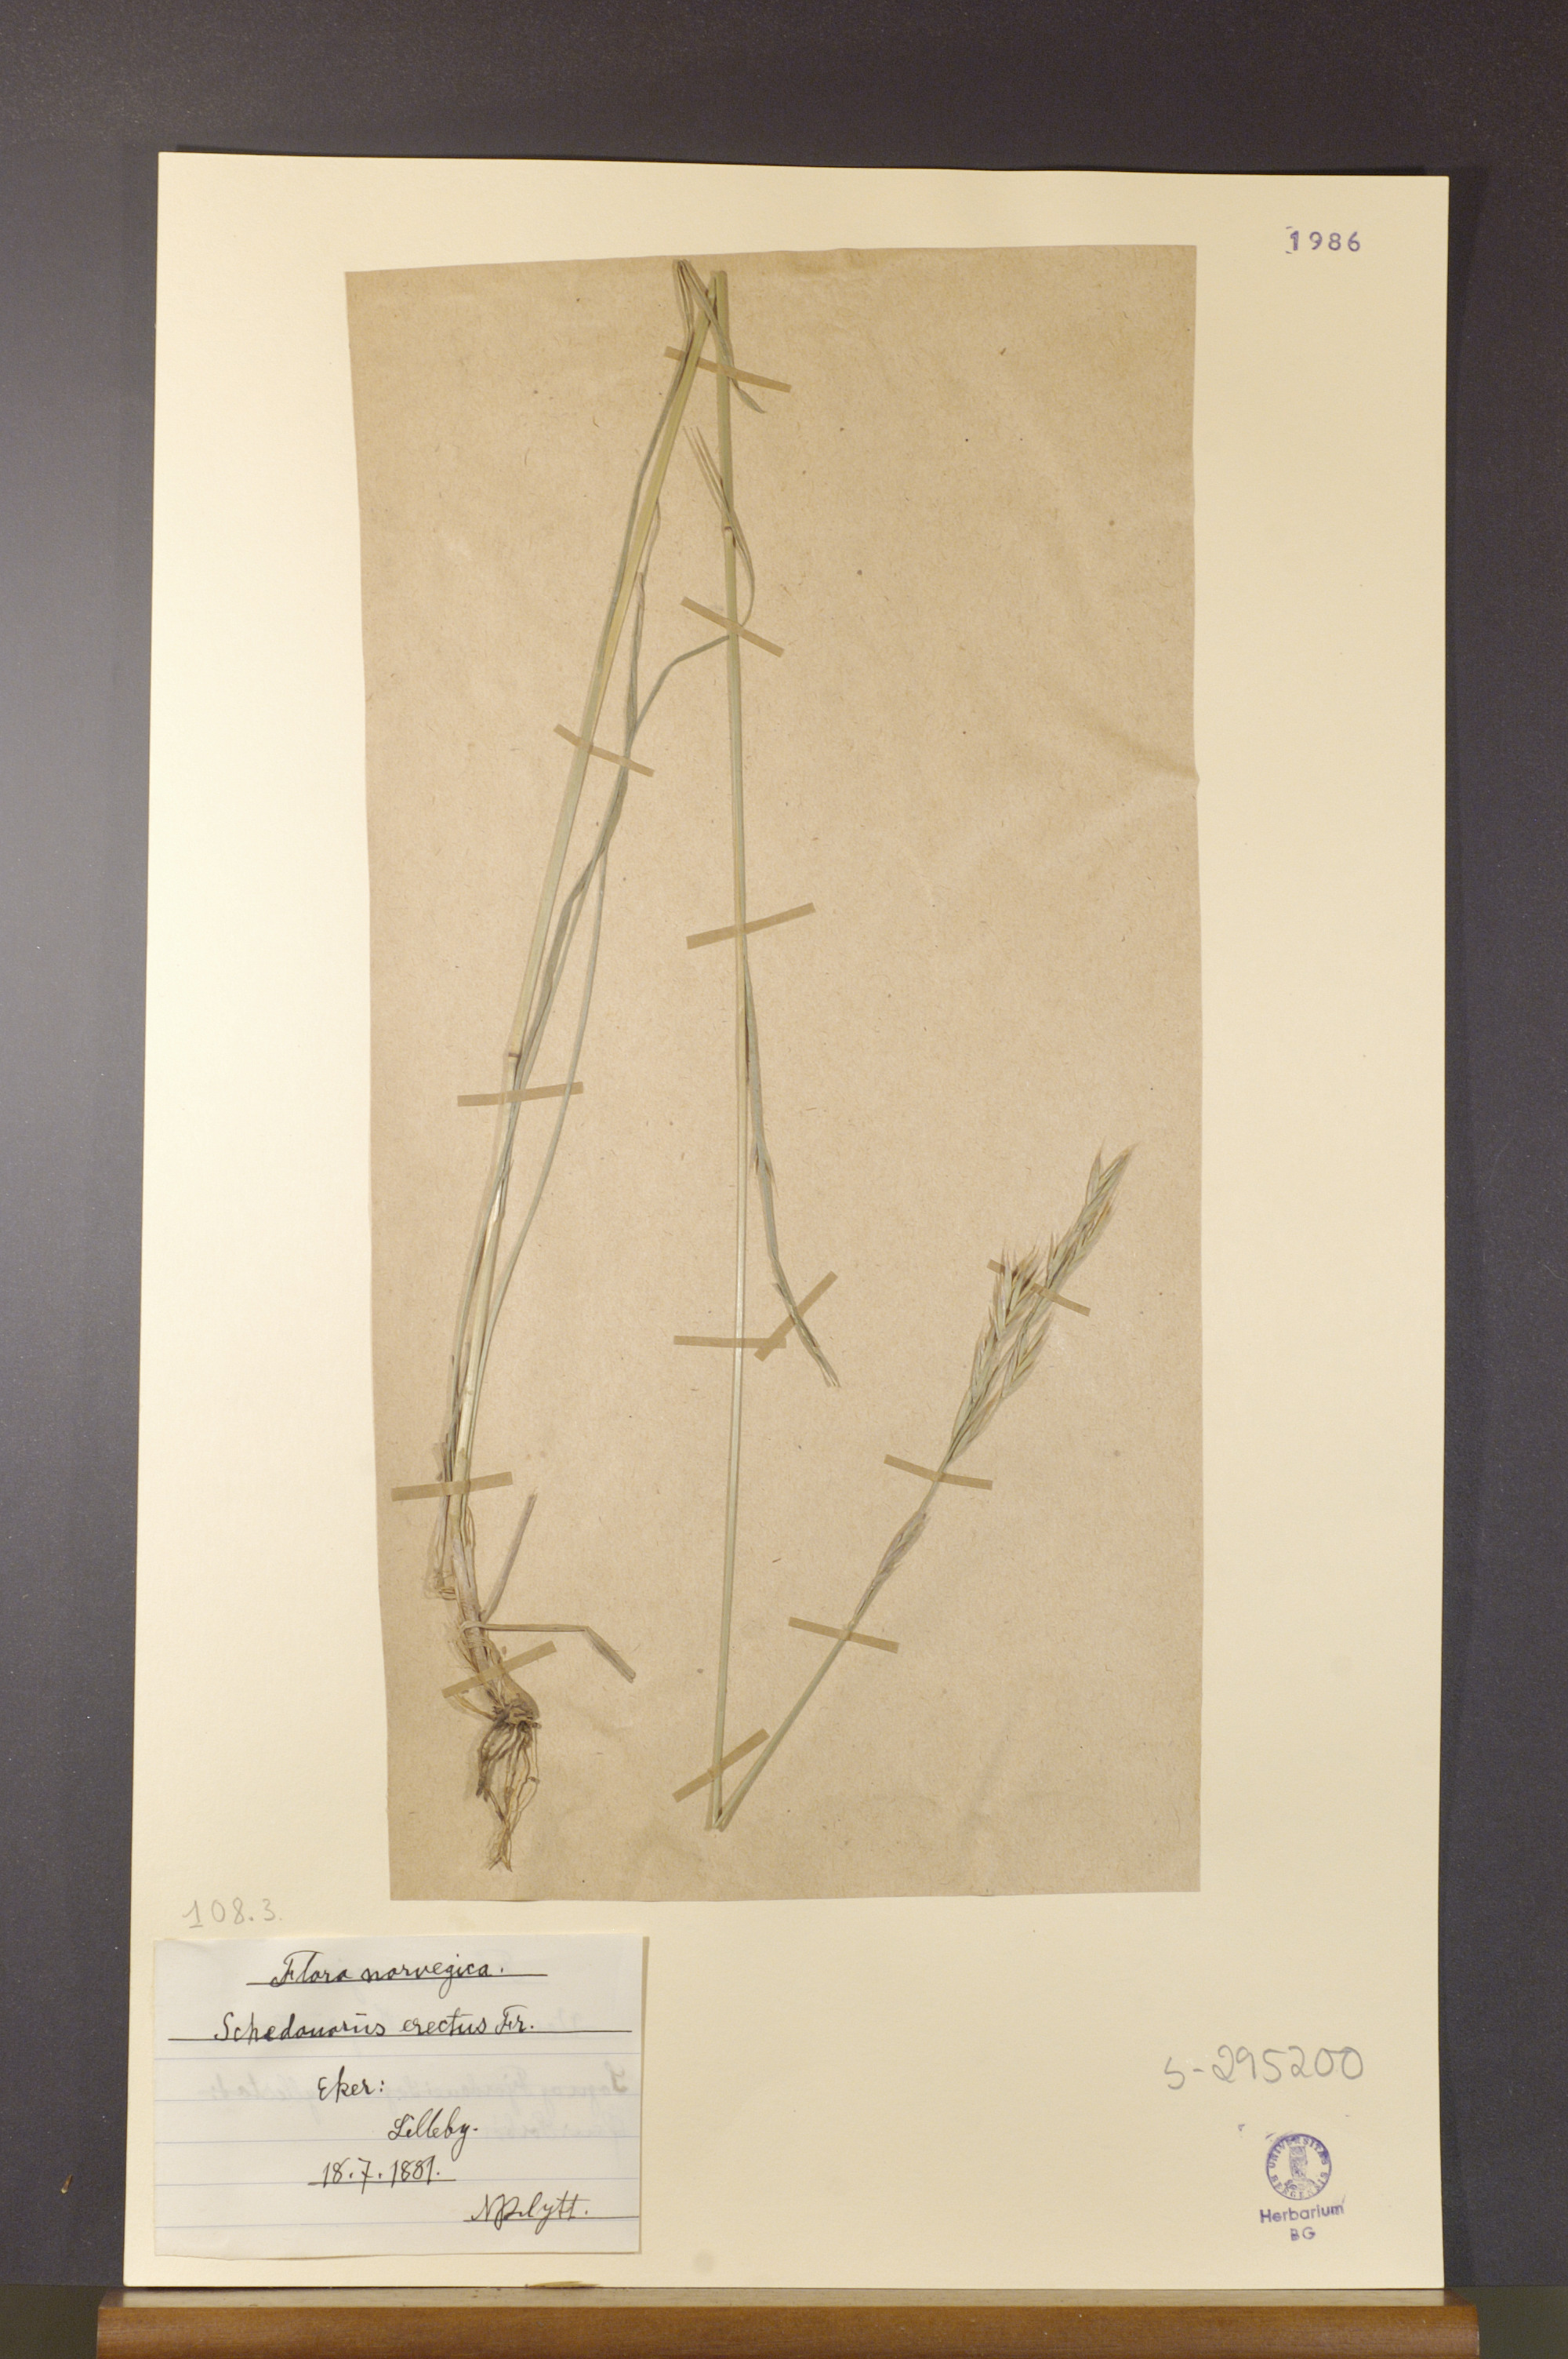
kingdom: Plantae
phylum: Tracheophyta
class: Liliopsida
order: Poales
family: Poaceae
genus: Bromus
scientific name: Bromus erectus
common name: Erect brome
